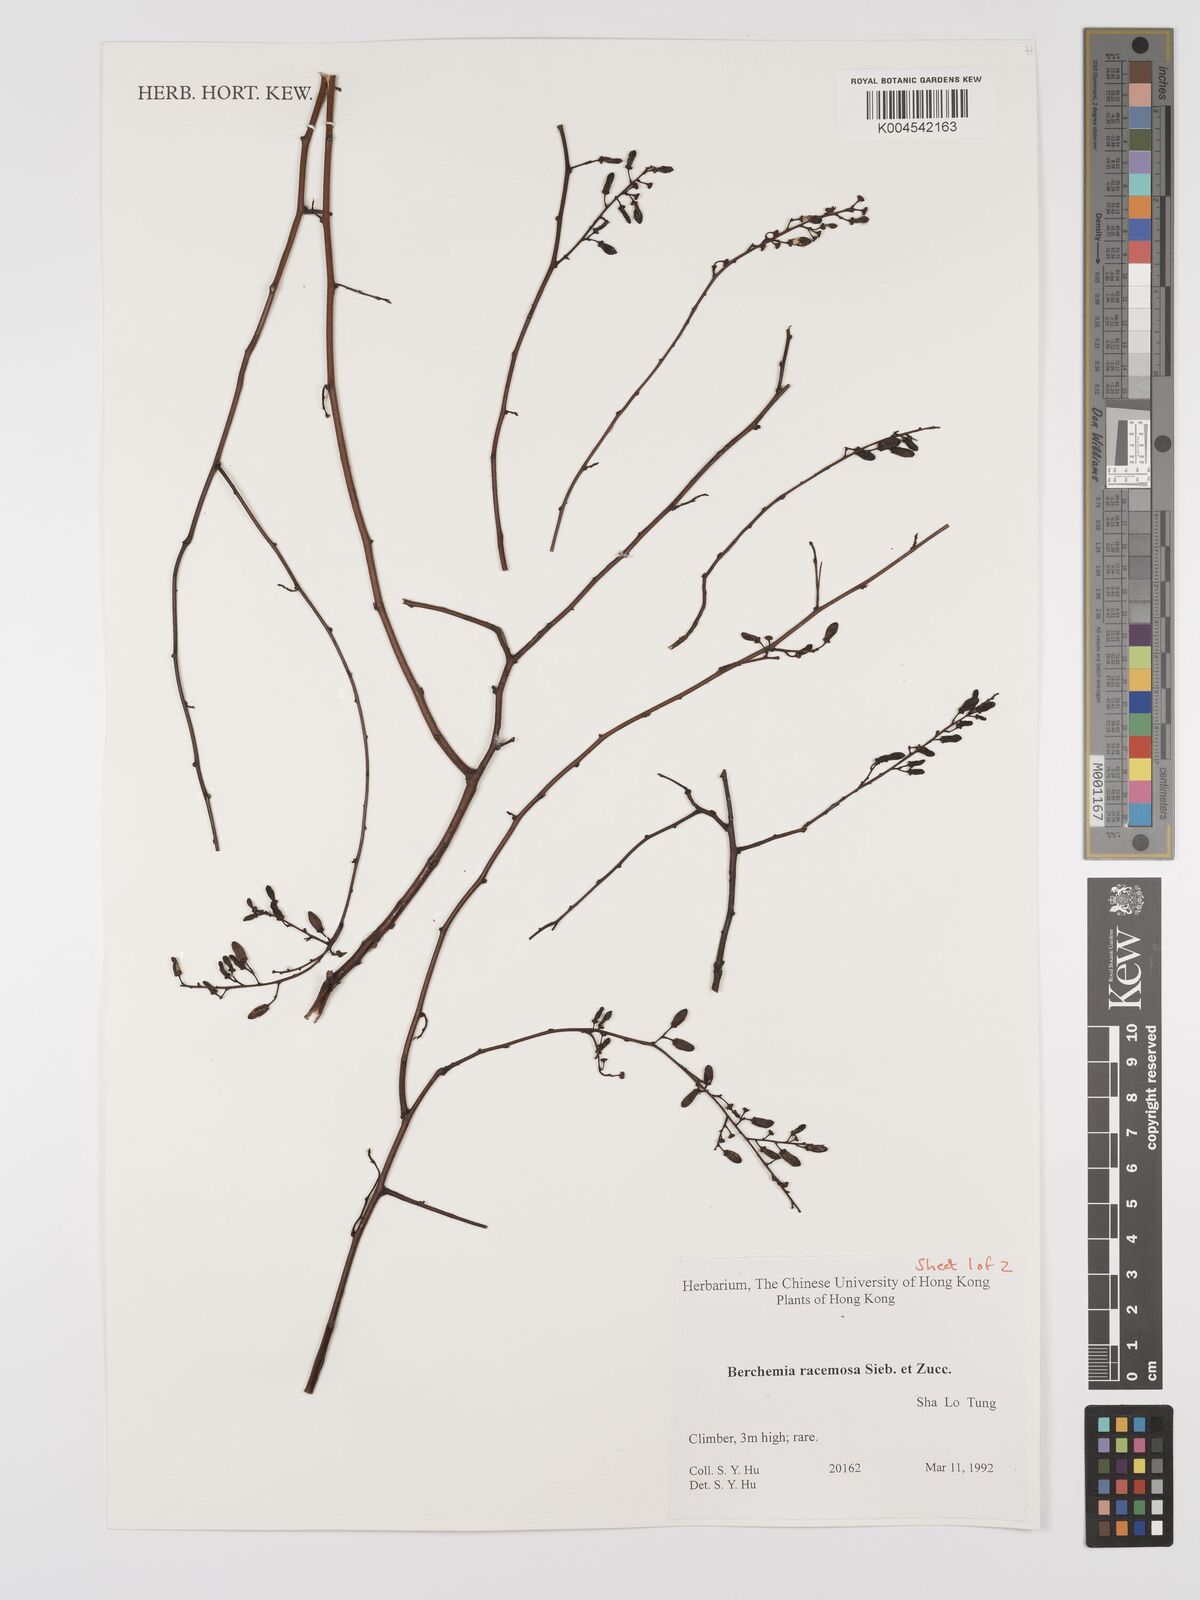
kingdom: Plantae
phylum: Tracheophyta
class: Magnoliopsida
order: Rosales
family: Rhamnaceae
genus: Berchemia
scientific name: Berchemia floribunda
